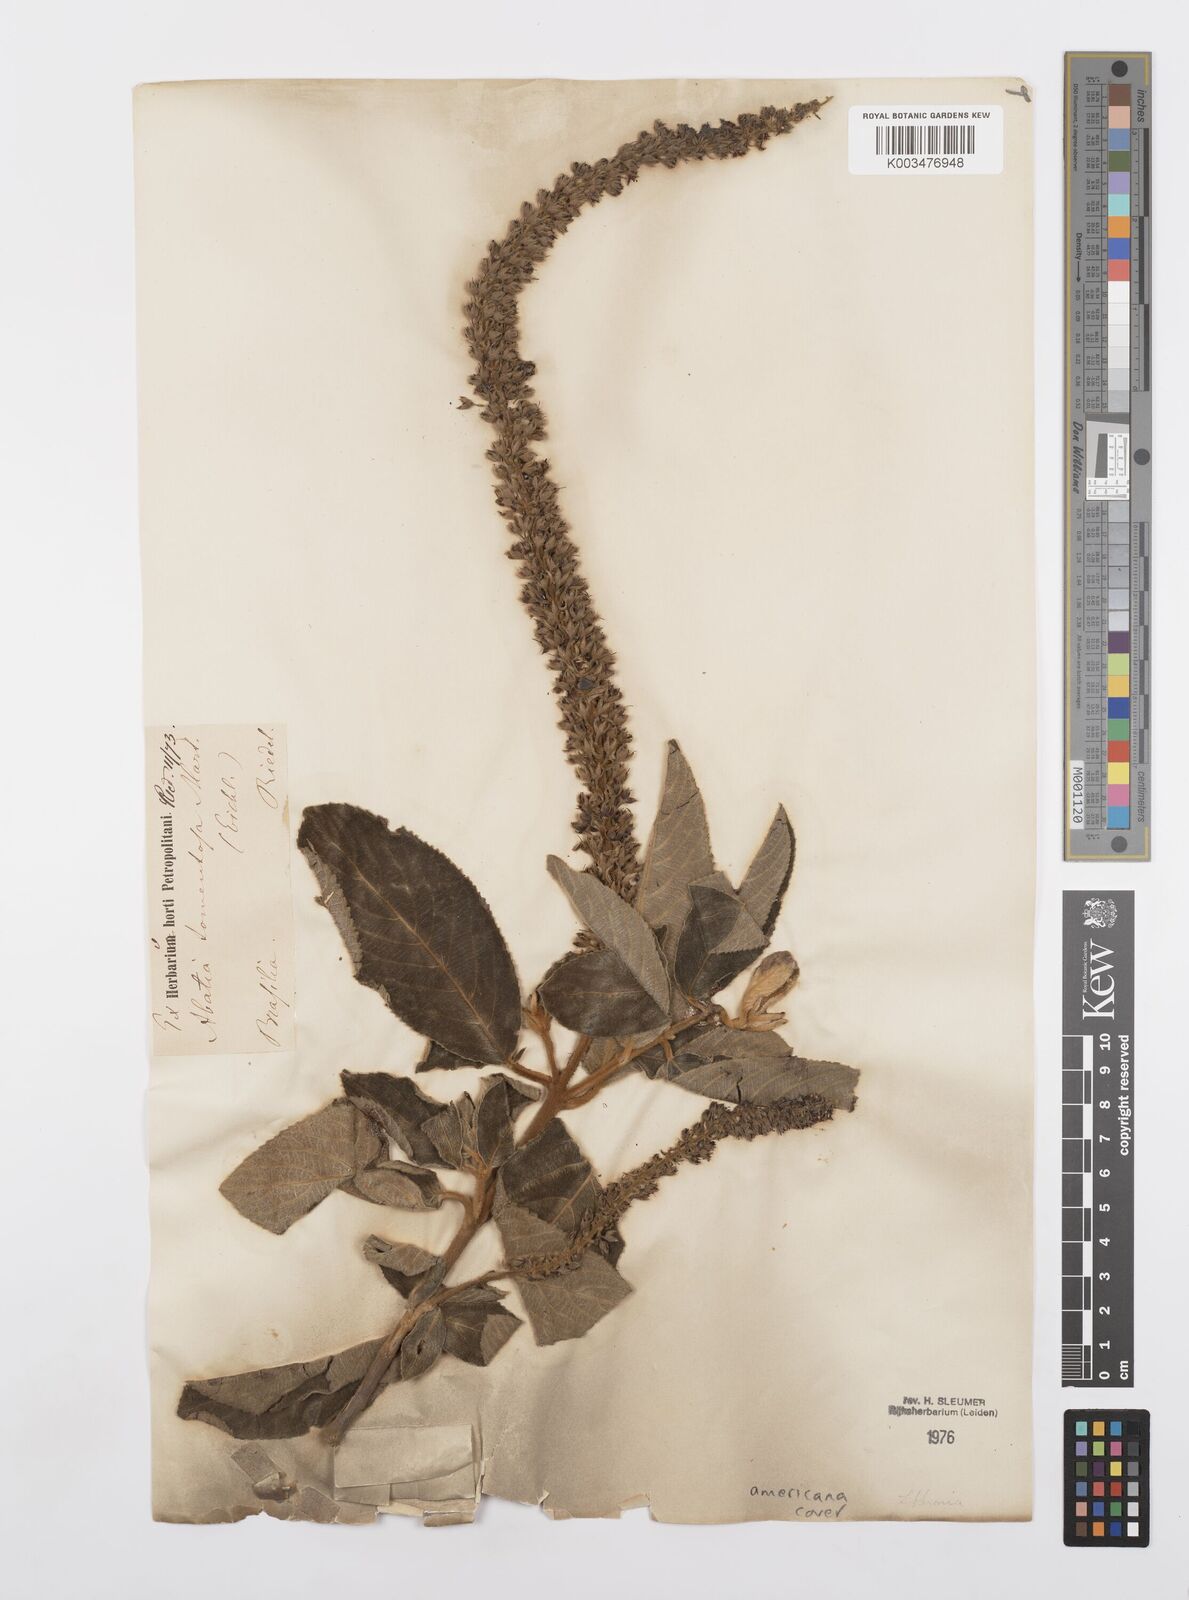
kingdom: Plantae
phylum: Tracheophyta
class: Magnoliopsida
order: Malpighiales
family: Salicaceae
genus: Abatia
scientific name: Abatia americana
